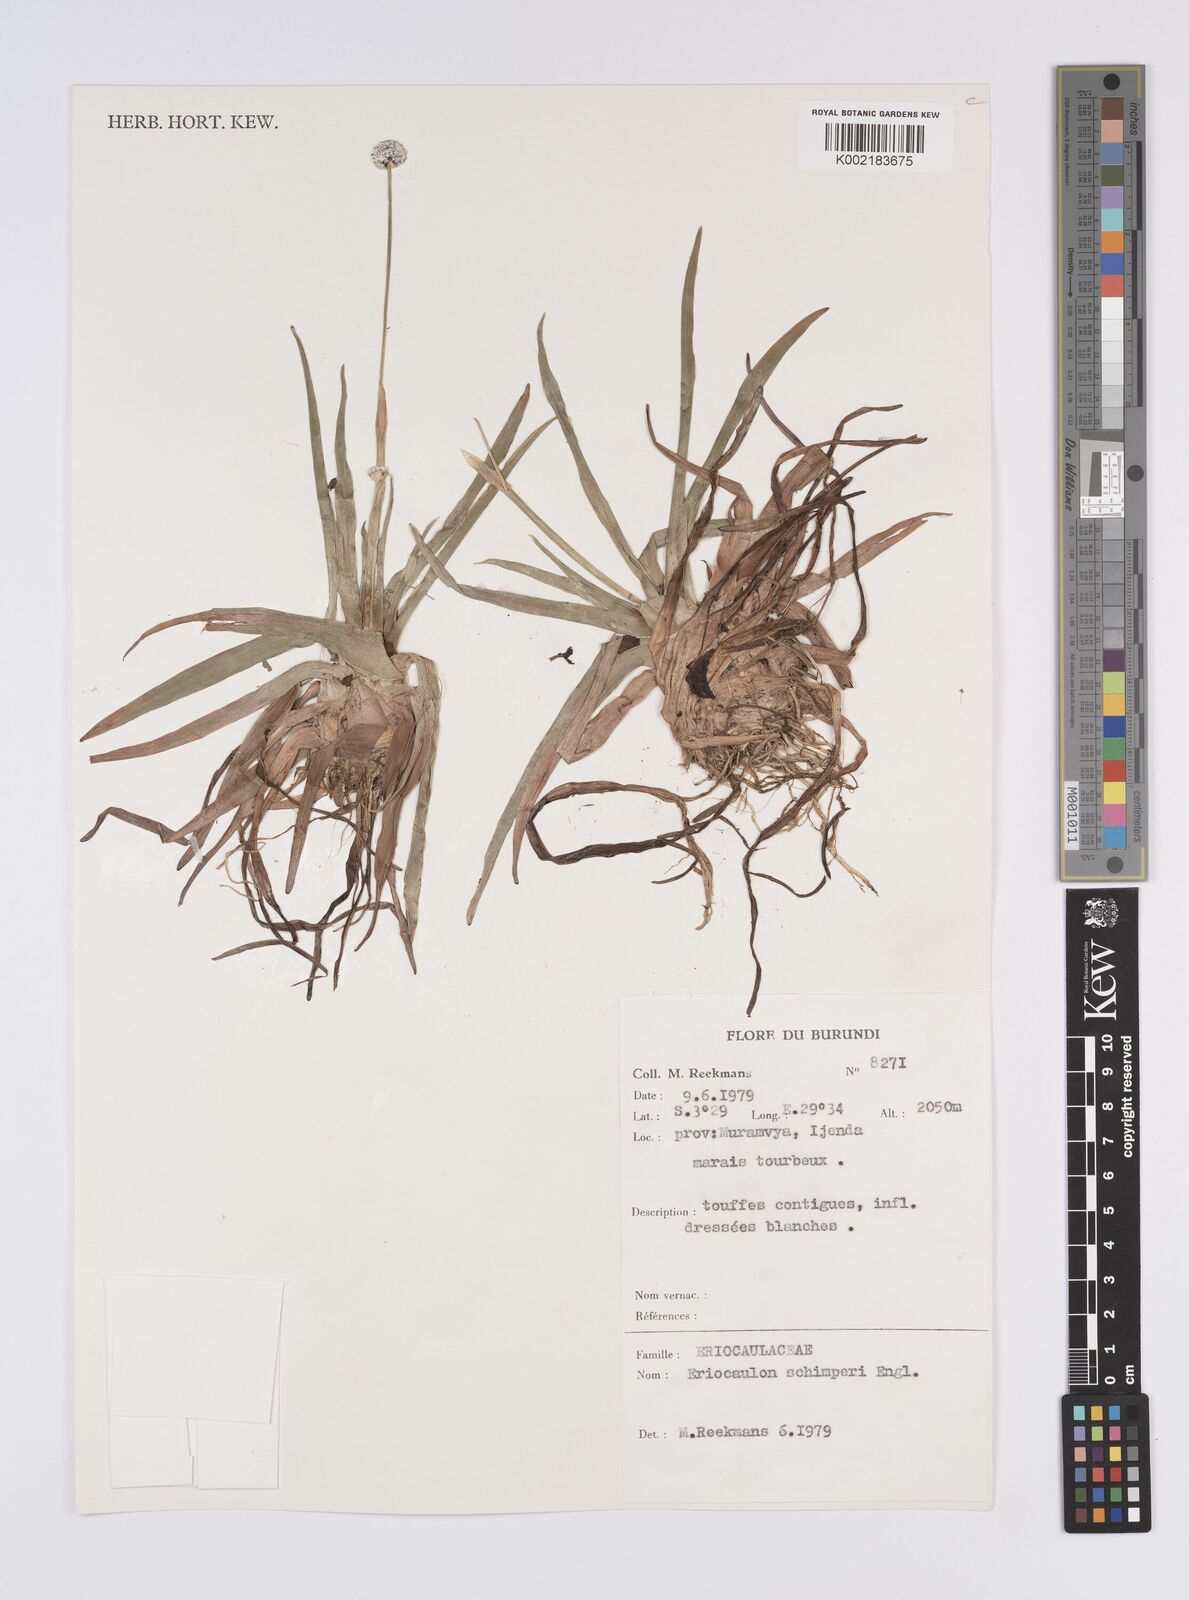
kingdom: Plantae
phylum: Tracheophyta
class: Liliopsida
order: Poales
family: Eriocaulaceae
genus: Eriocaulon
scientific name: Eriocaulon schimperi
